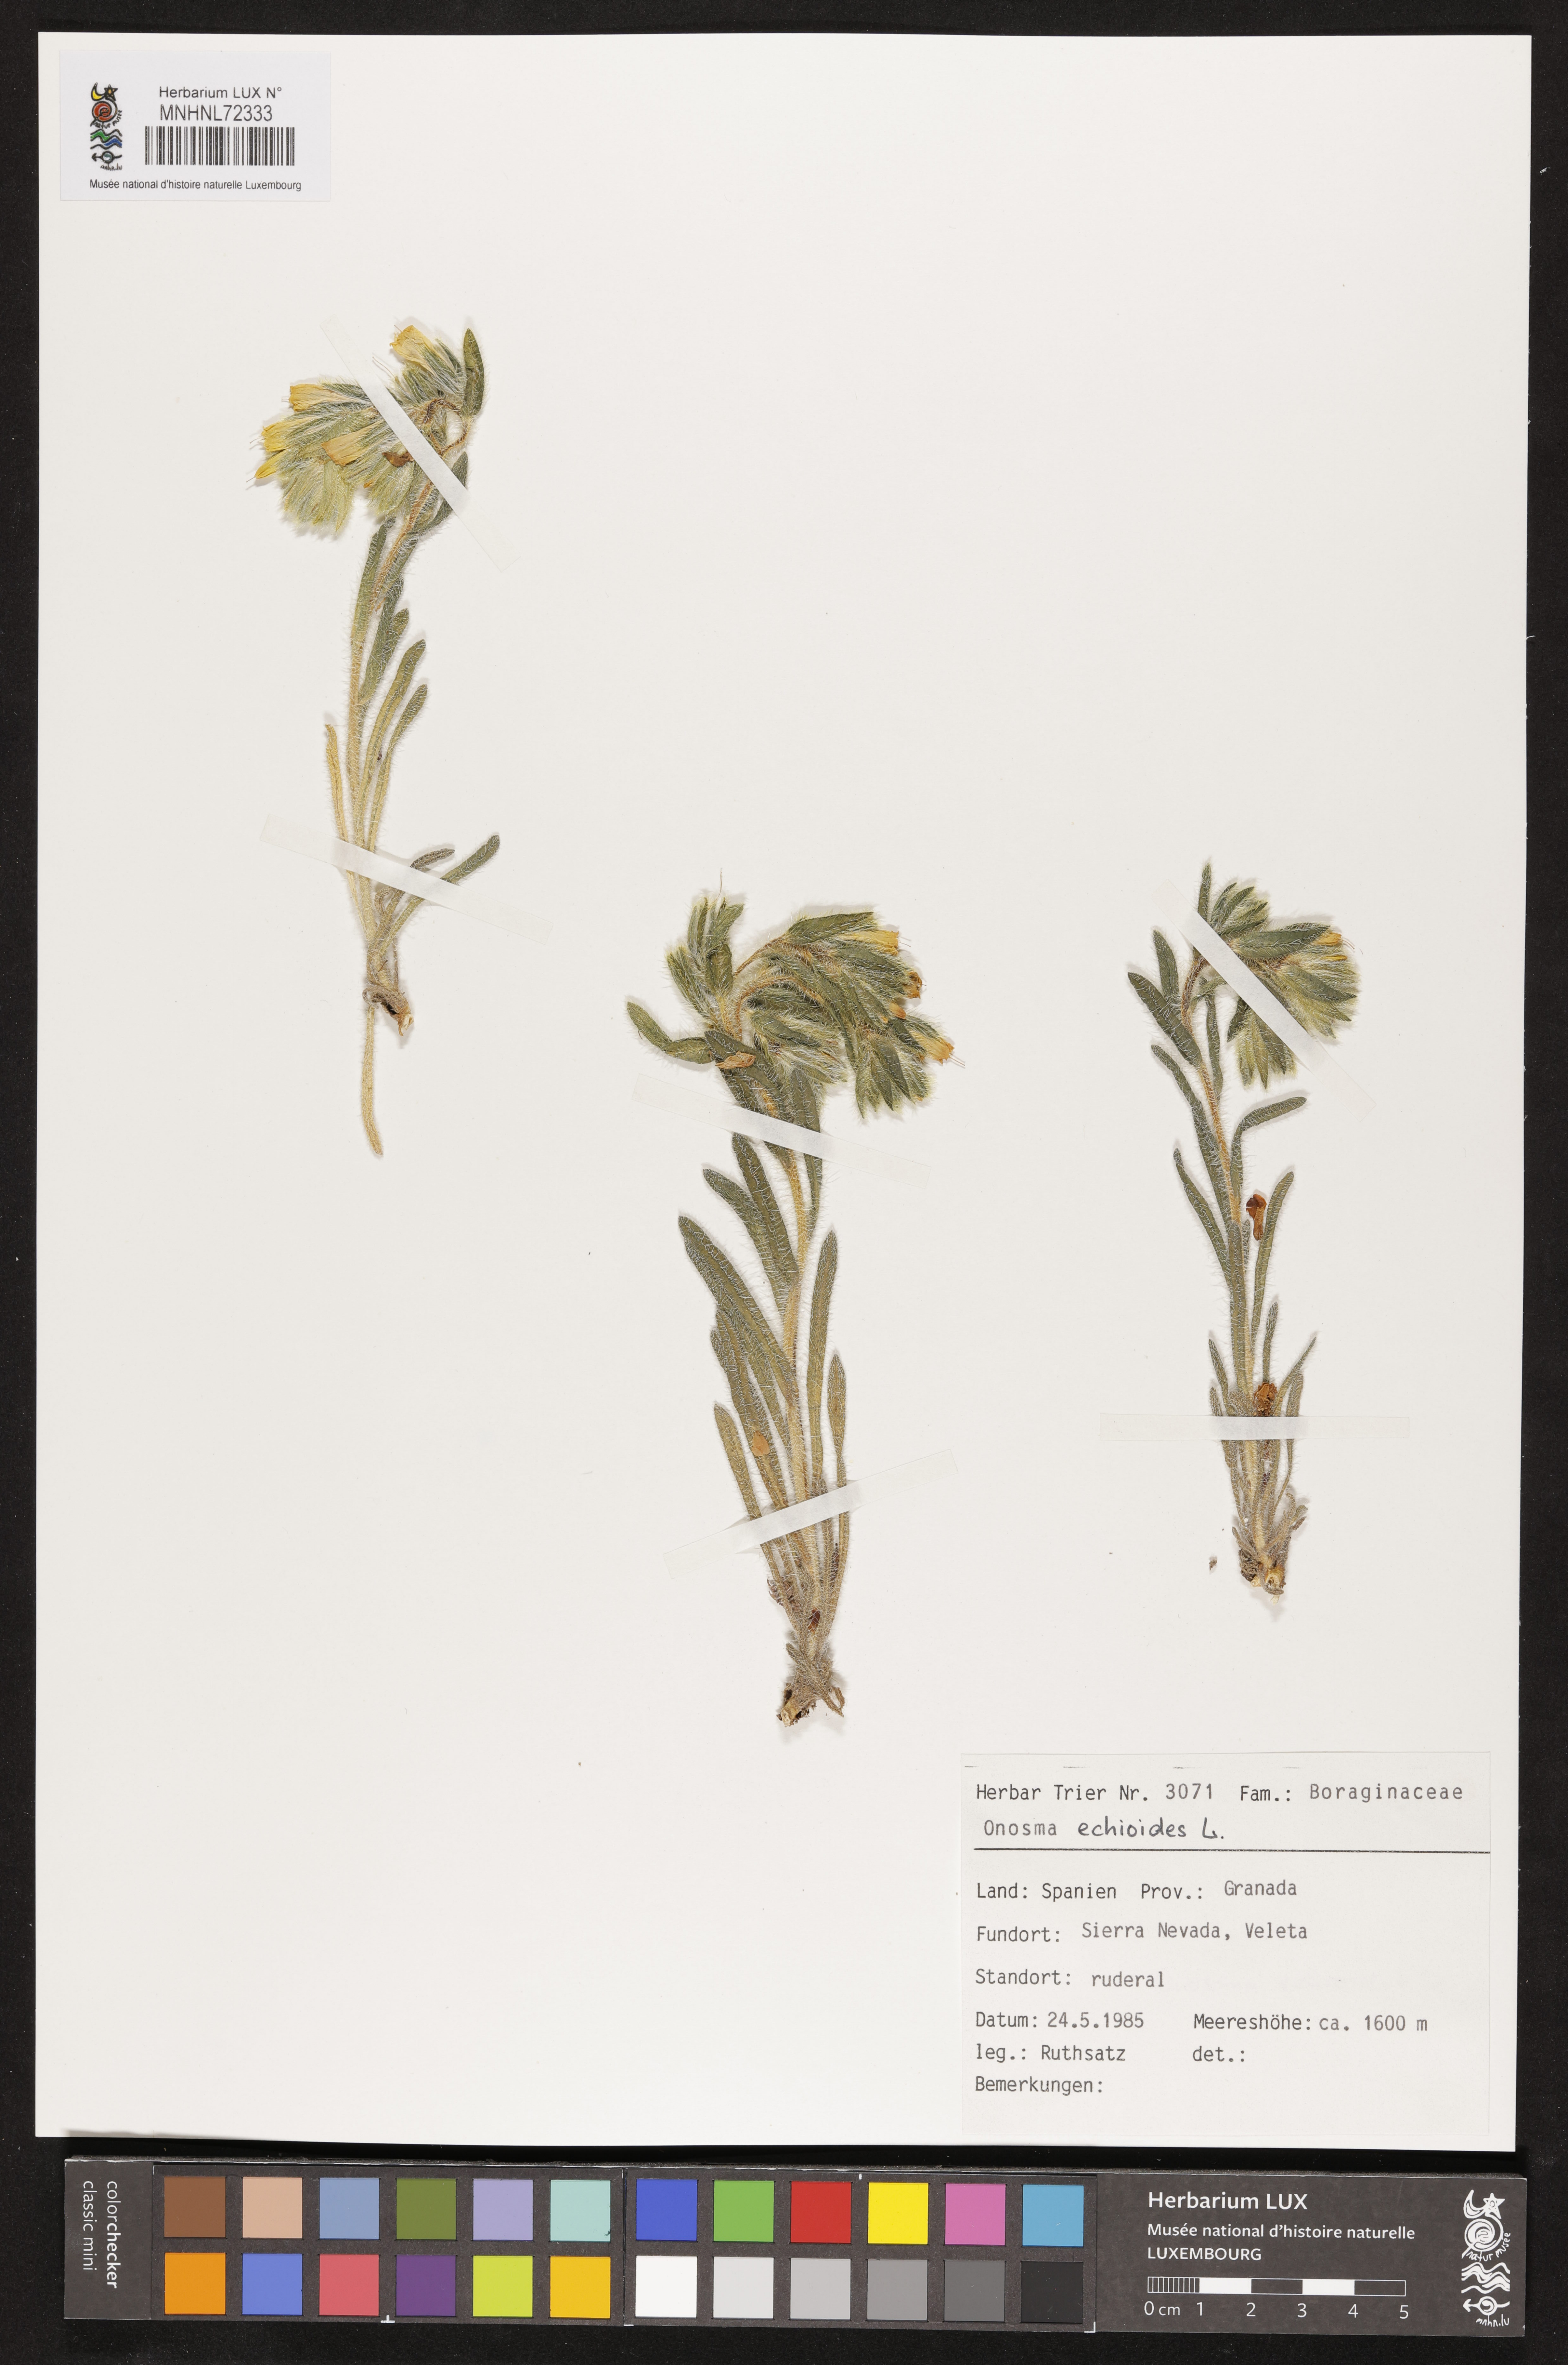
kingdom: Plantae
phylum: Tracheophyta
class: Magnoliopsida
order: Boraginales
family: Boraginaceae
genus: Onosma
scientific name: Onosma echioides
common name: Goldendrop
